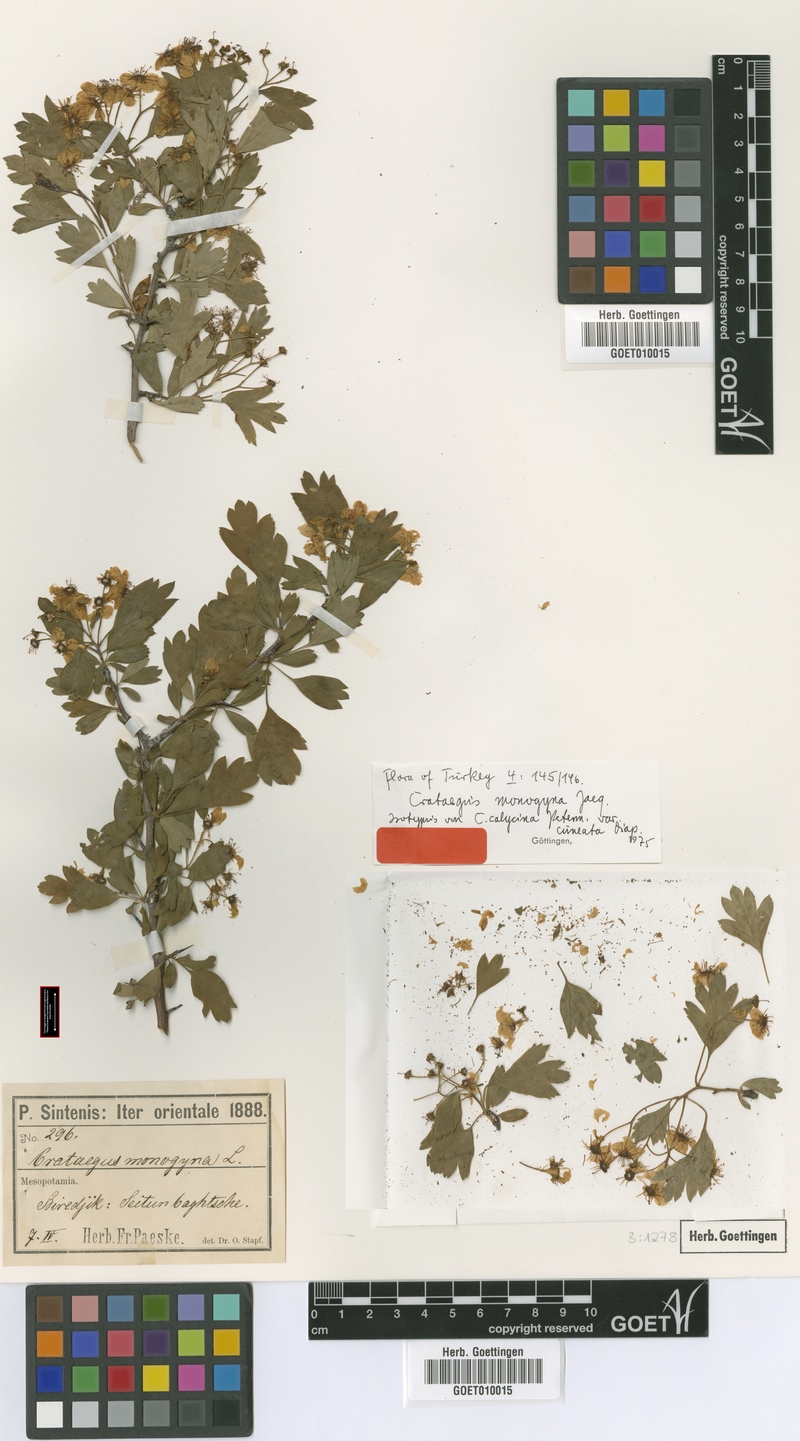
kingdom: Plantae
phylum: Tracheophyta
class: Magnoliopsida
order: Rosales
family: Rosaceae
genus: Crataegus
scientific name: Crataegus monogyna
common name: Hawthorn
